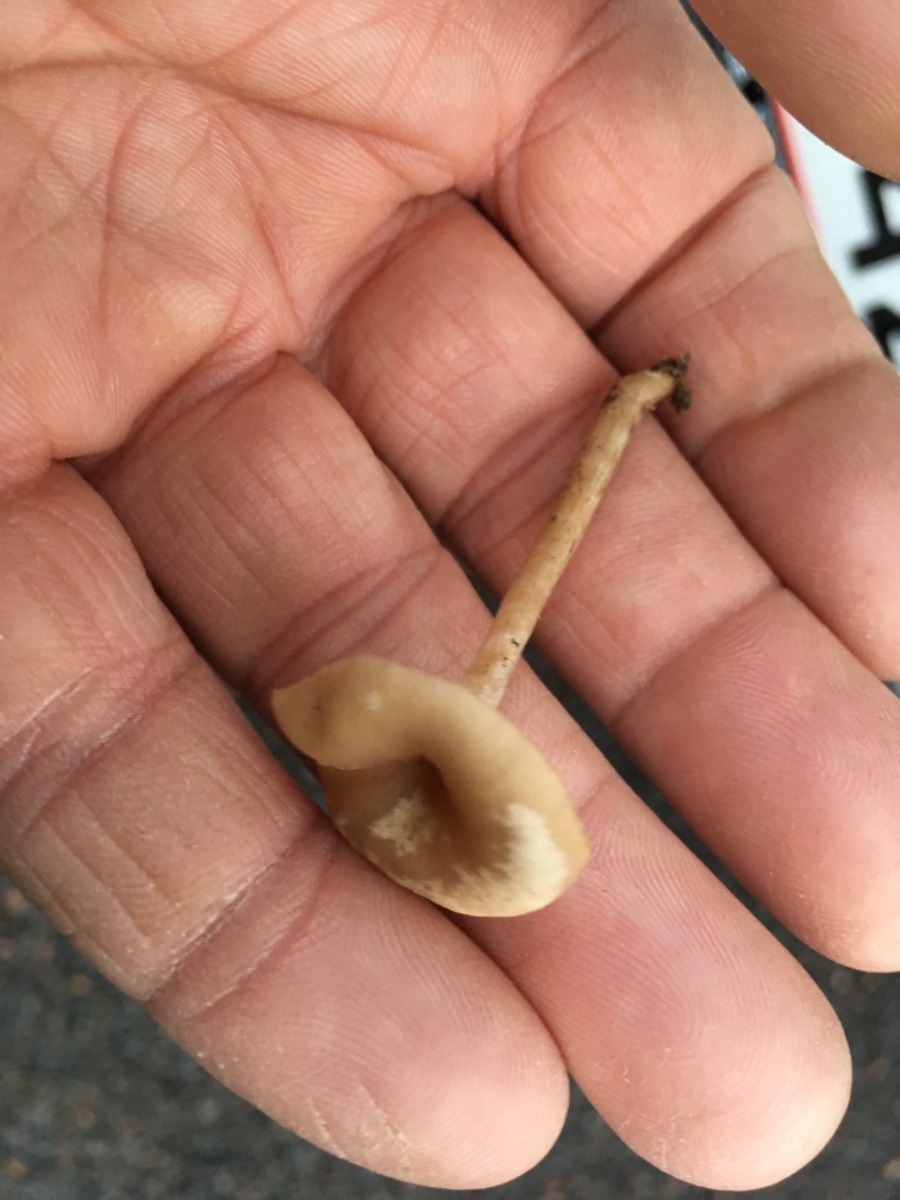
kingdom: Fungi
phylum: Basidiomycota
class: Agaricomycetes
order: Agaricales
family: Tricholomataceae
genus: Clitocybe
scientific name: Clitocybe fragrans
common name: vellugtende tragthat
